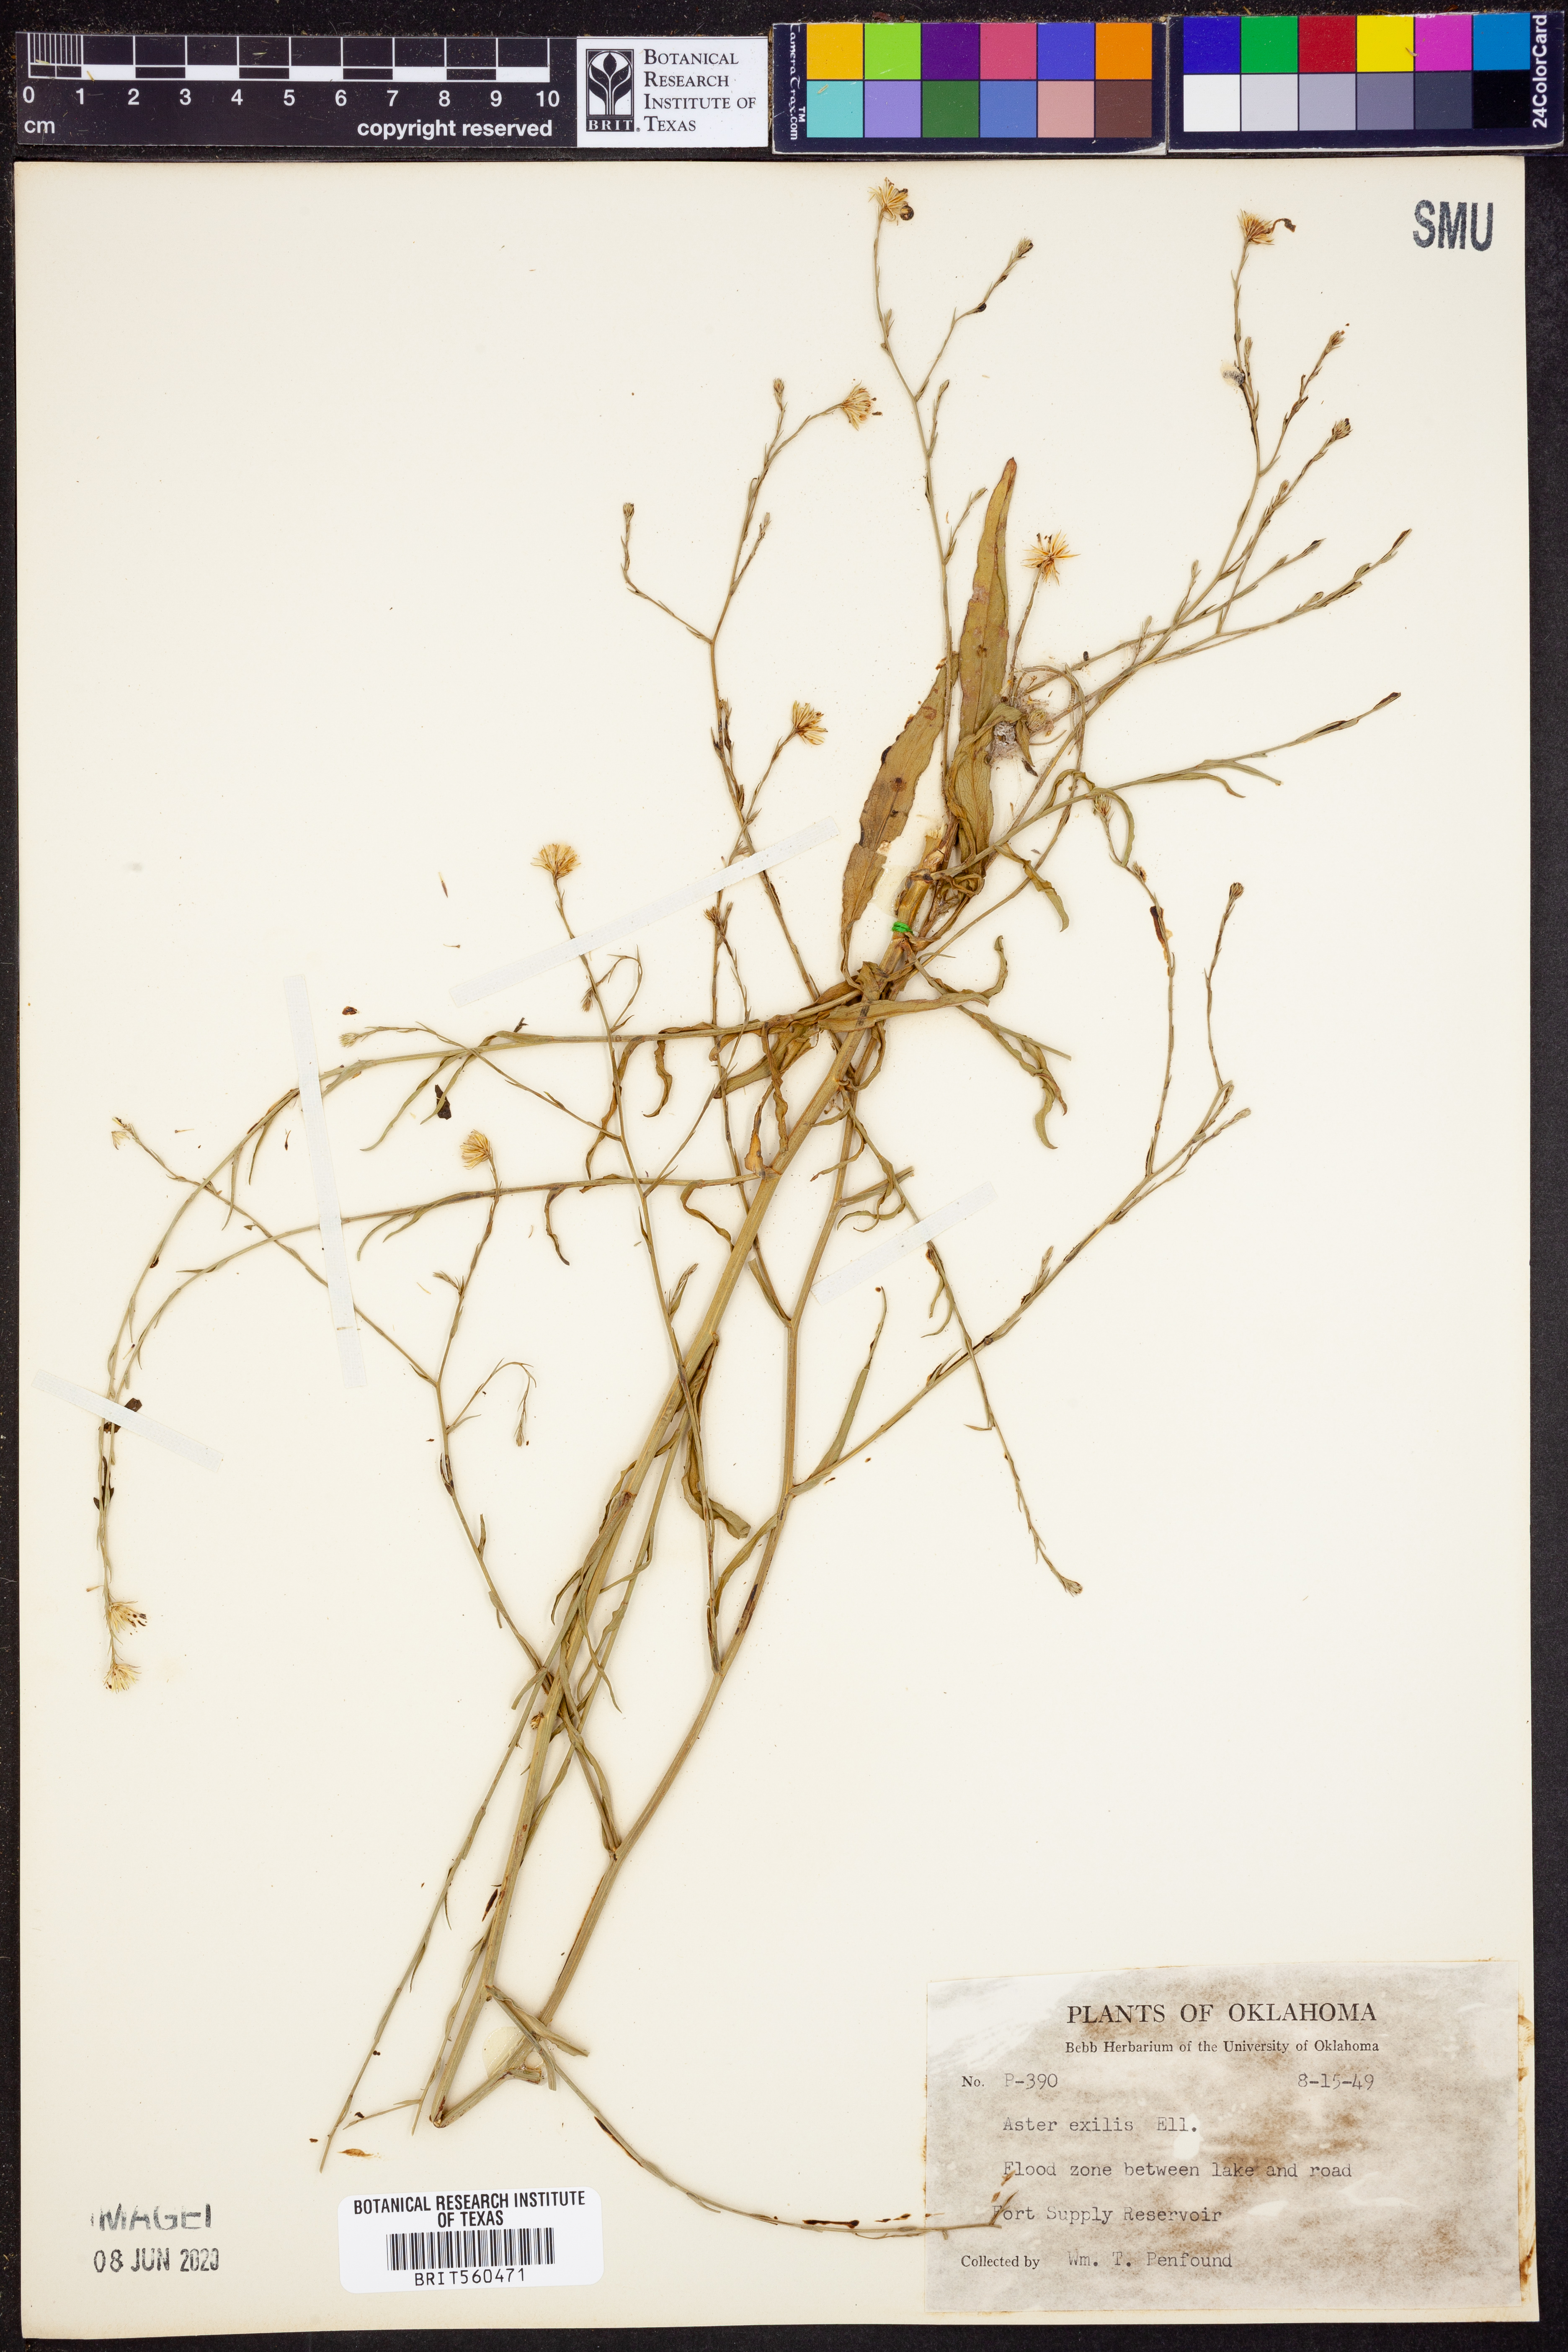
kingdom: Plantae
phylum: Tracheophyta
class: Magnoliopsida
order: Asterales
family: Asteraceae
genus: Symphyotrichum
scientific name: Symphyotrichum expansum
